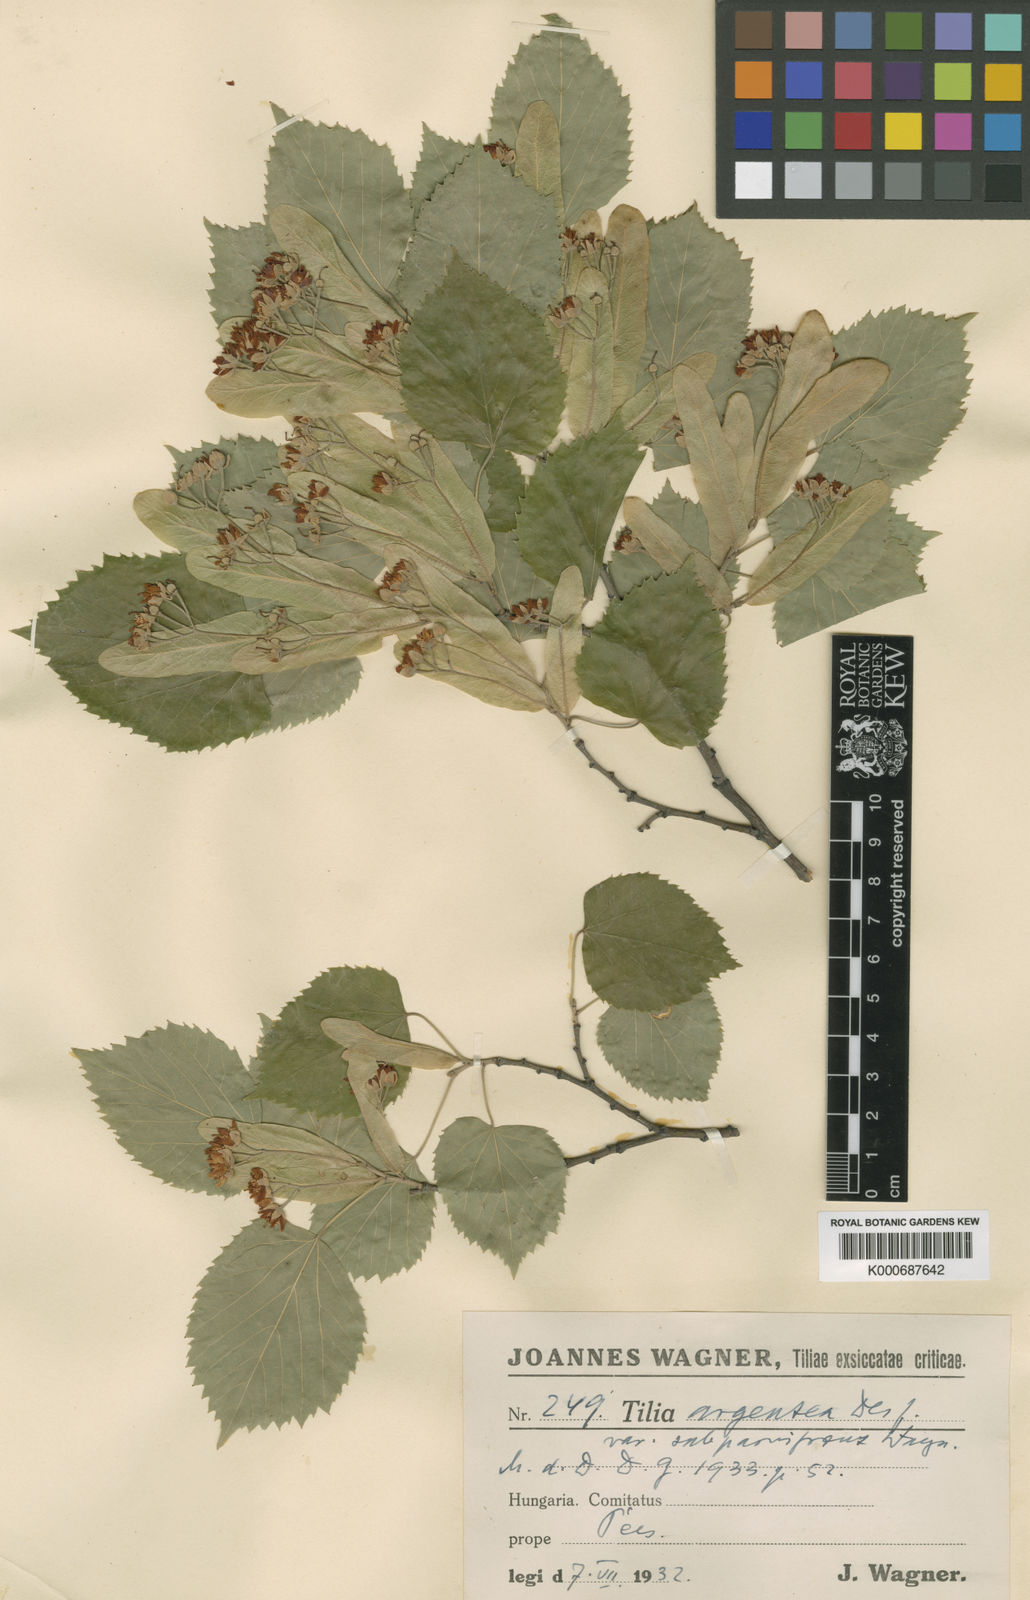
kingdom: Plantae
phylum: Tracheophyta
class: Magnoliopsida
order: Malvales
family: Malvaceae
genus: Tilia
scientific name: Tilia tomentosa
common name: Silver lime
